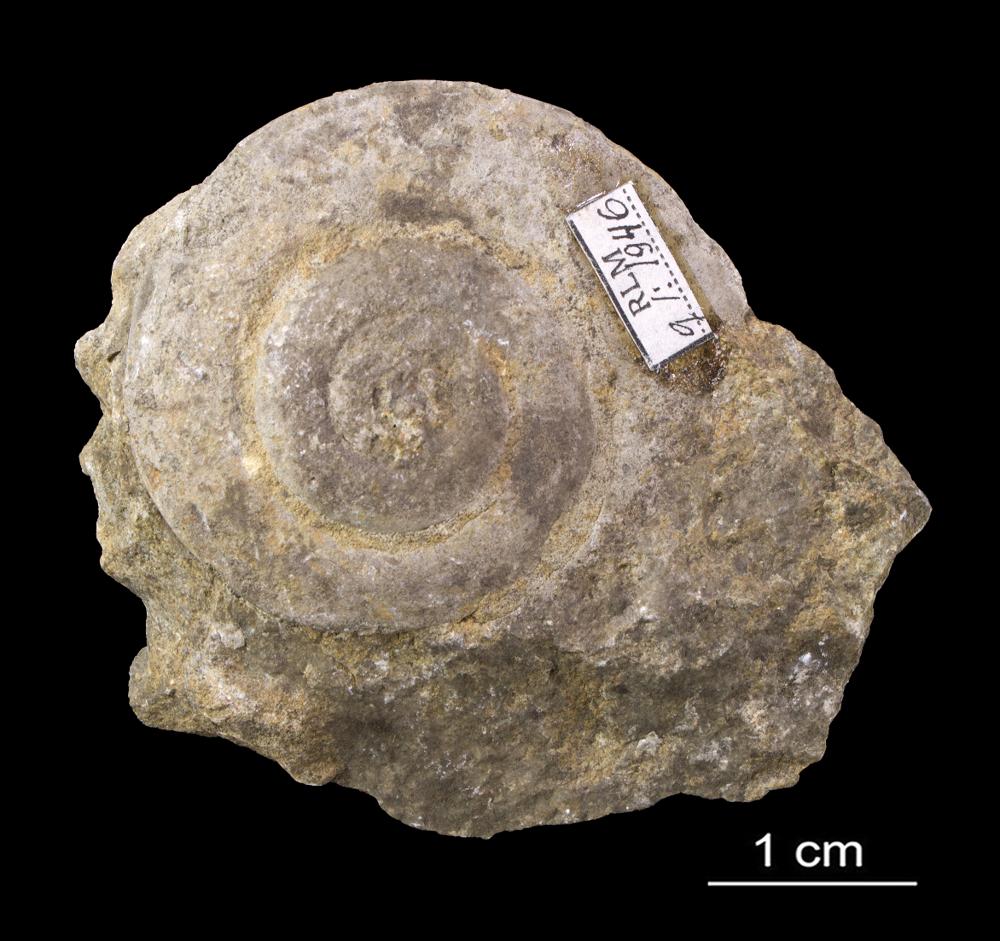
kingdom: Animalia
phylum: Mollusca
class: Gastropoda
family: Lesueurillidae
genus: Pararaphistoma
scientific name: Pararaphistoma Helicites qualteriata
